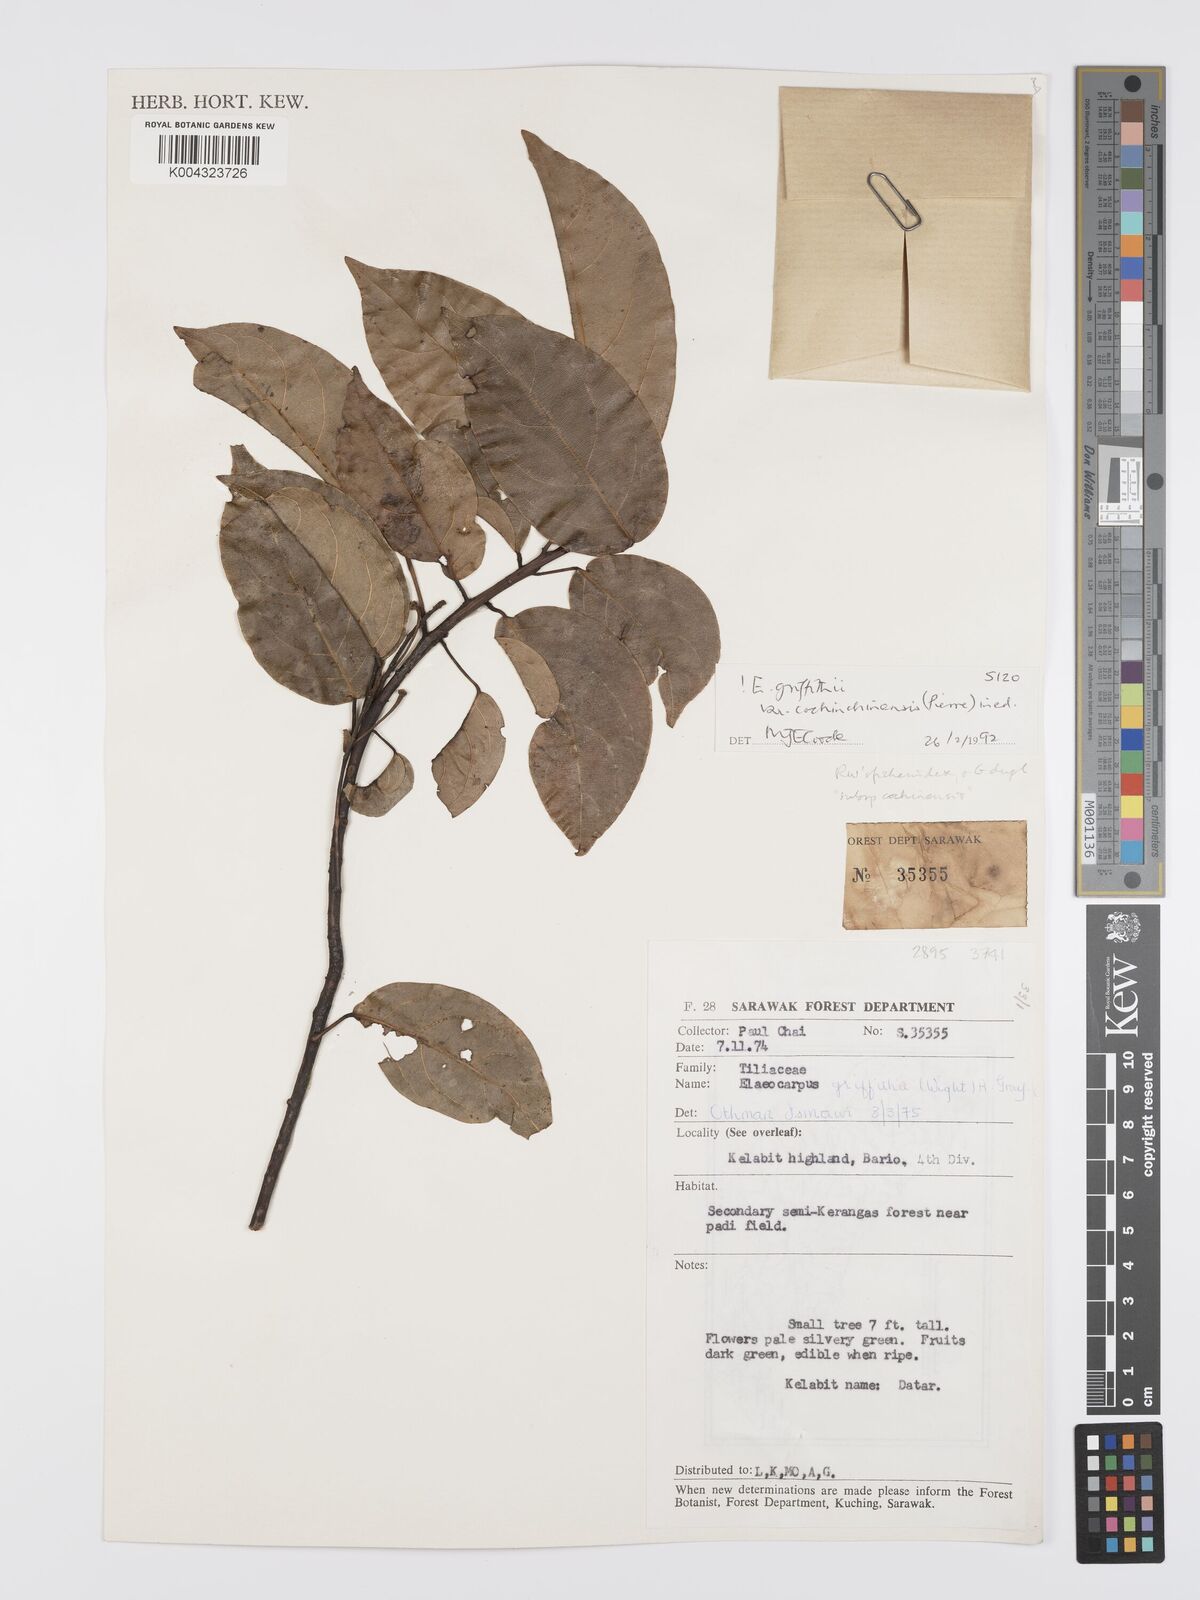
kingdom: Plantae
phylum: Tracheophyta
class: Magnoliopsida
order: Oxalidales
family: Elaeocarpaceae
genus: Elaeocarpus
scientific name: Elaeocarpus griffithii
